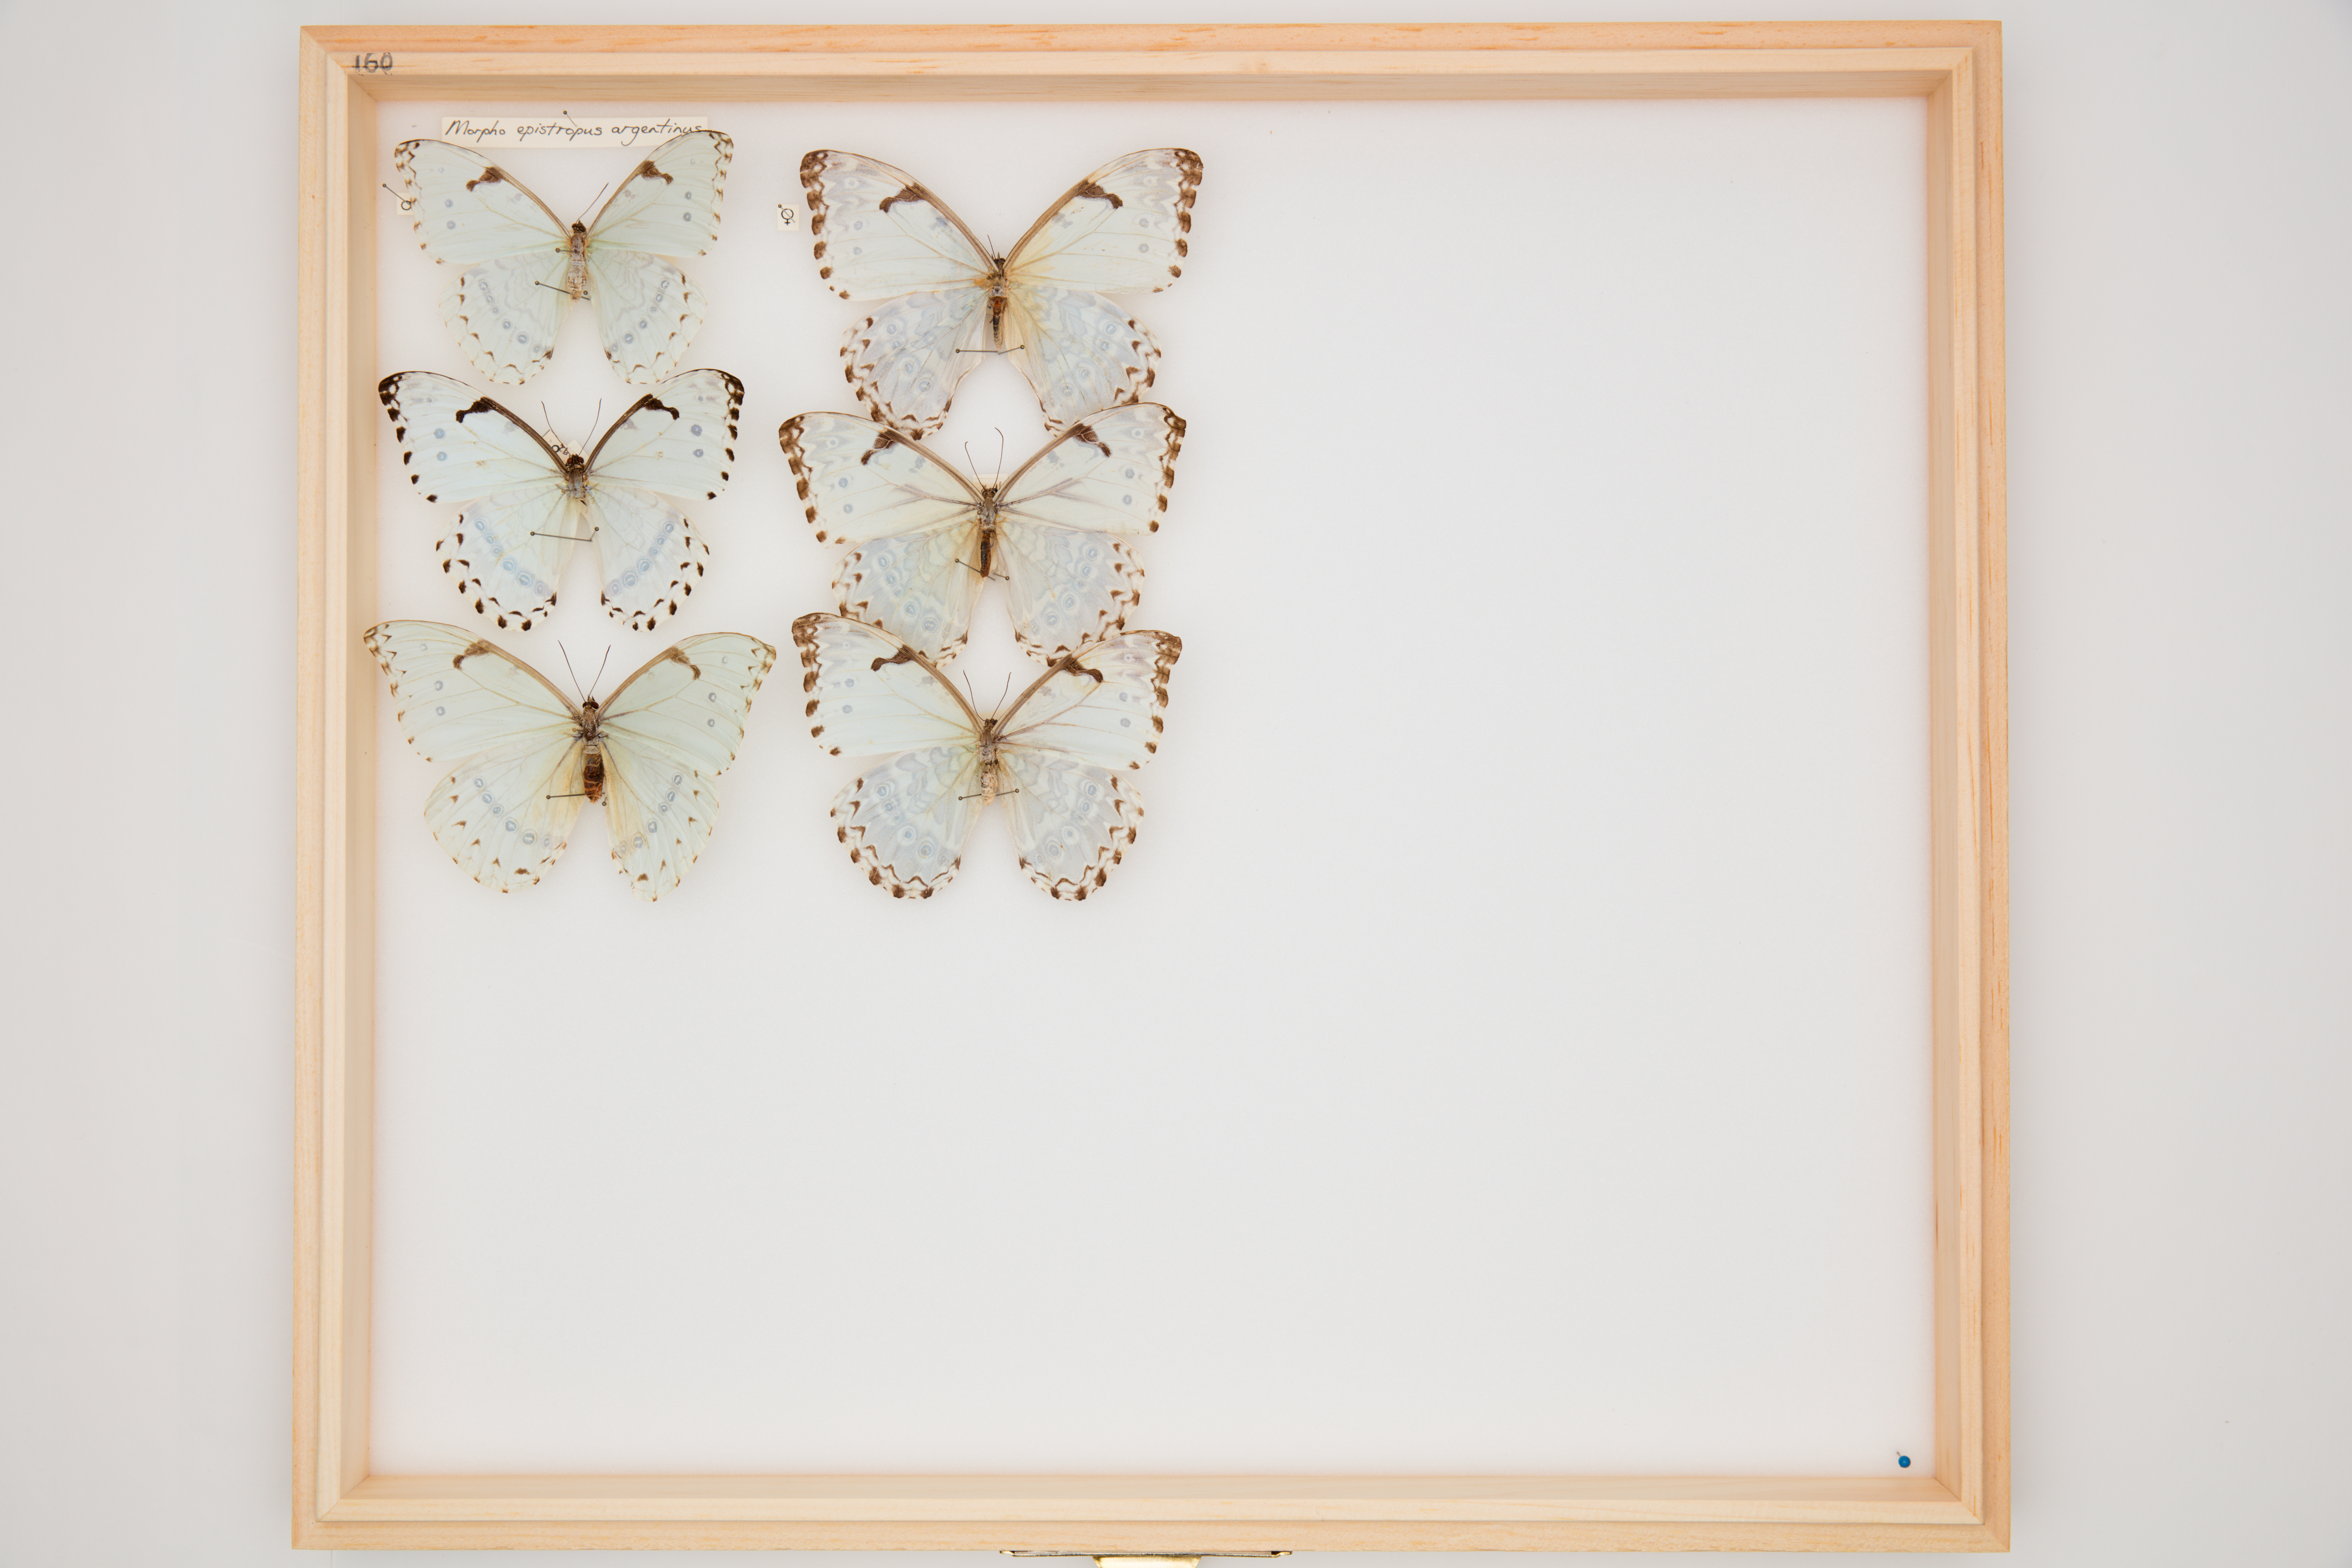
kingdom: Animalia
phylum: Arthropoda
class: Insecta
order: Lepidoptera
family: Nymphalidae
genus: Morpho
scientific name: Morpho epistrophus
